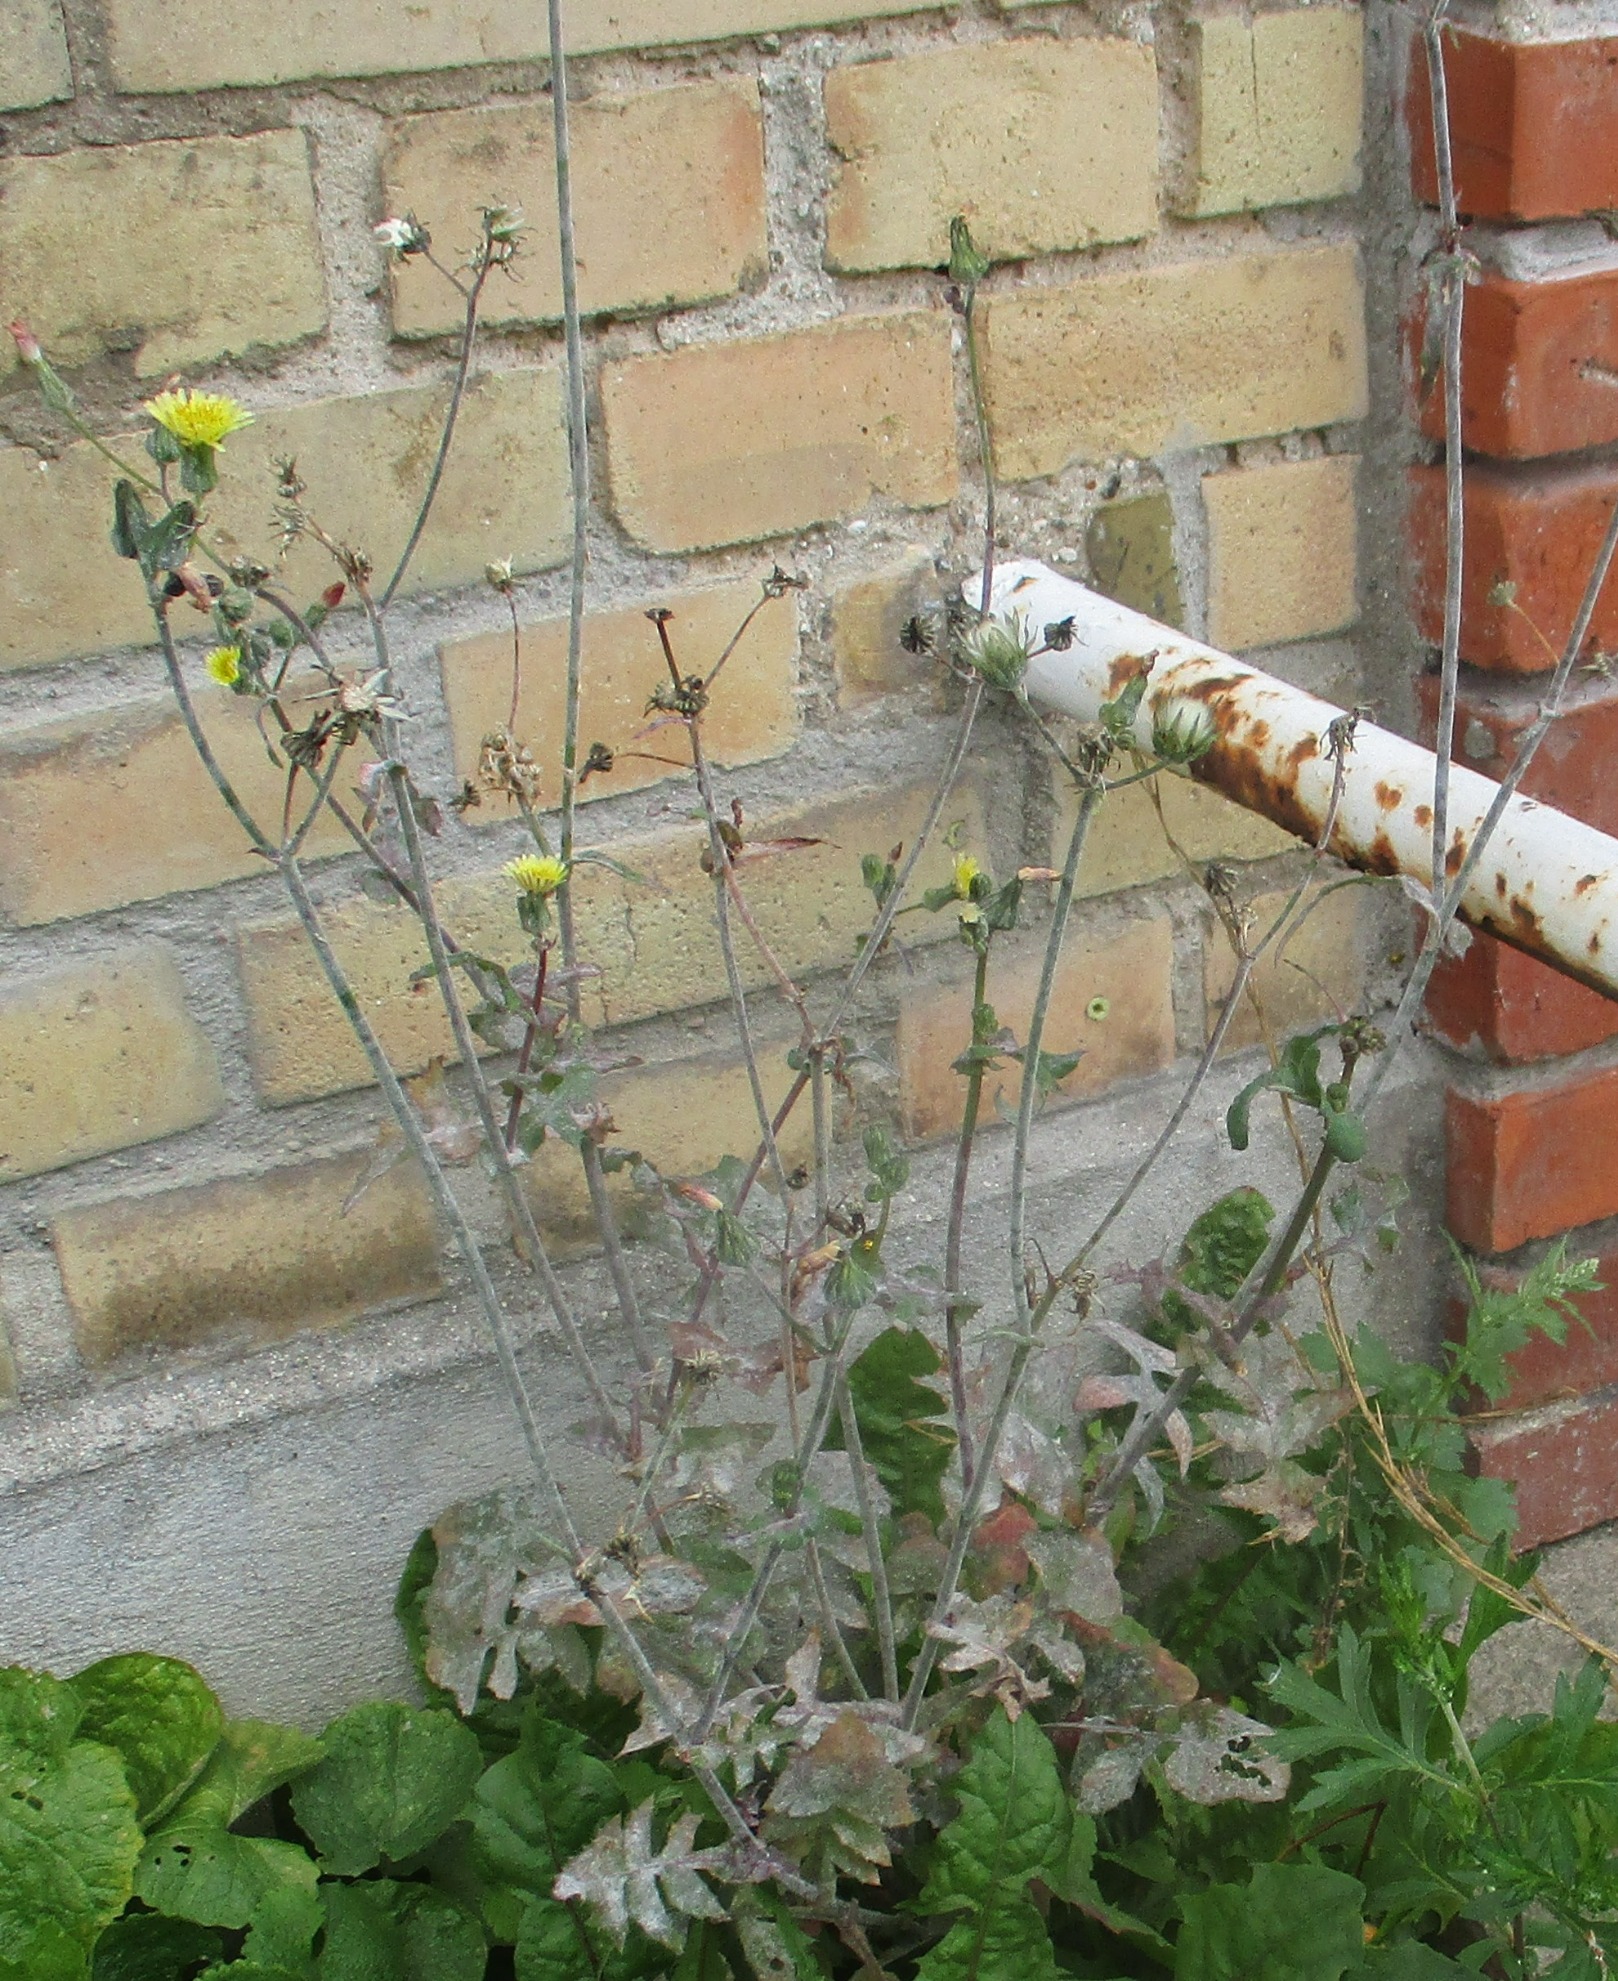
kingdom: Plantae
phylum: Tracheophyta
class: Magnoliopsida
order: Asterales
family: Asteraceae
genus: Sonchus
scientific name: Sonchus oleraceus
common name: Almindelig svinemælk
